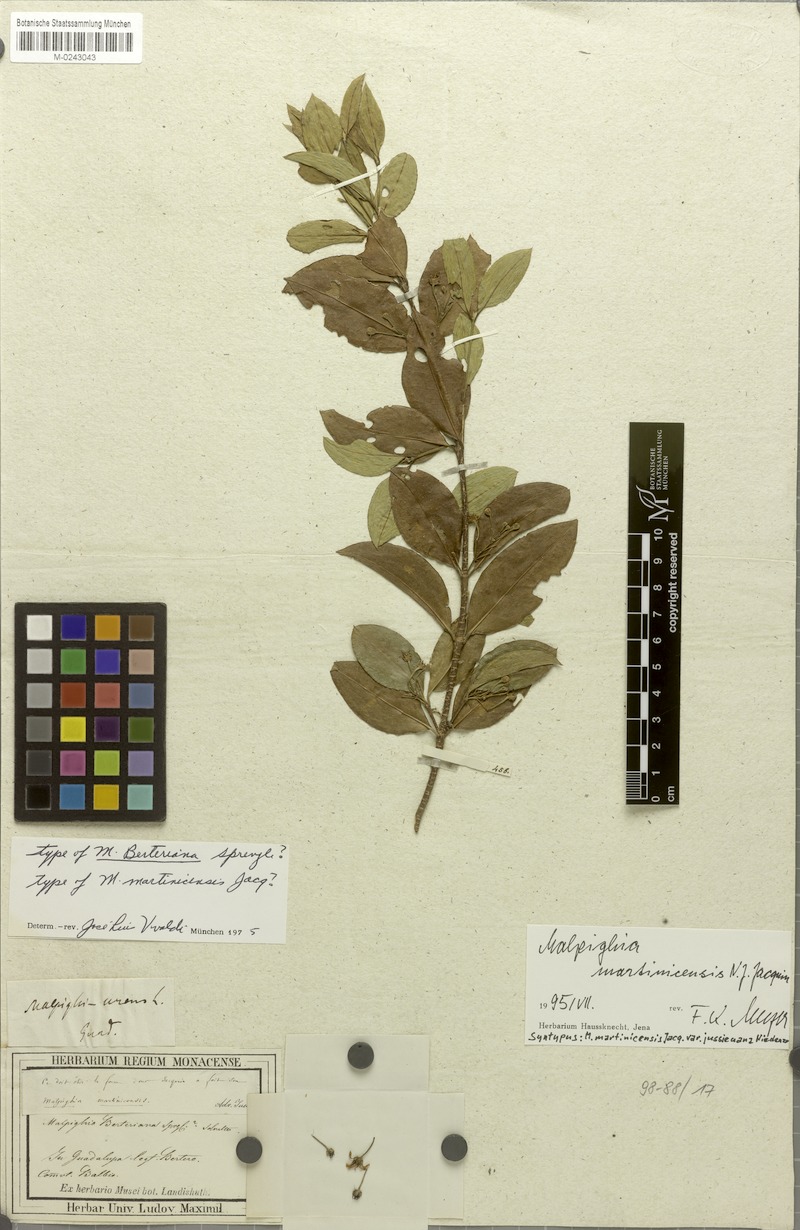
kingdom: Plantae
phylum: Tracheophyta
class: Magnoliopsida
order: Malpighiales
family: Malpighiaceae
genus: Malpighia
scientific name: Malpighia martinicensis
